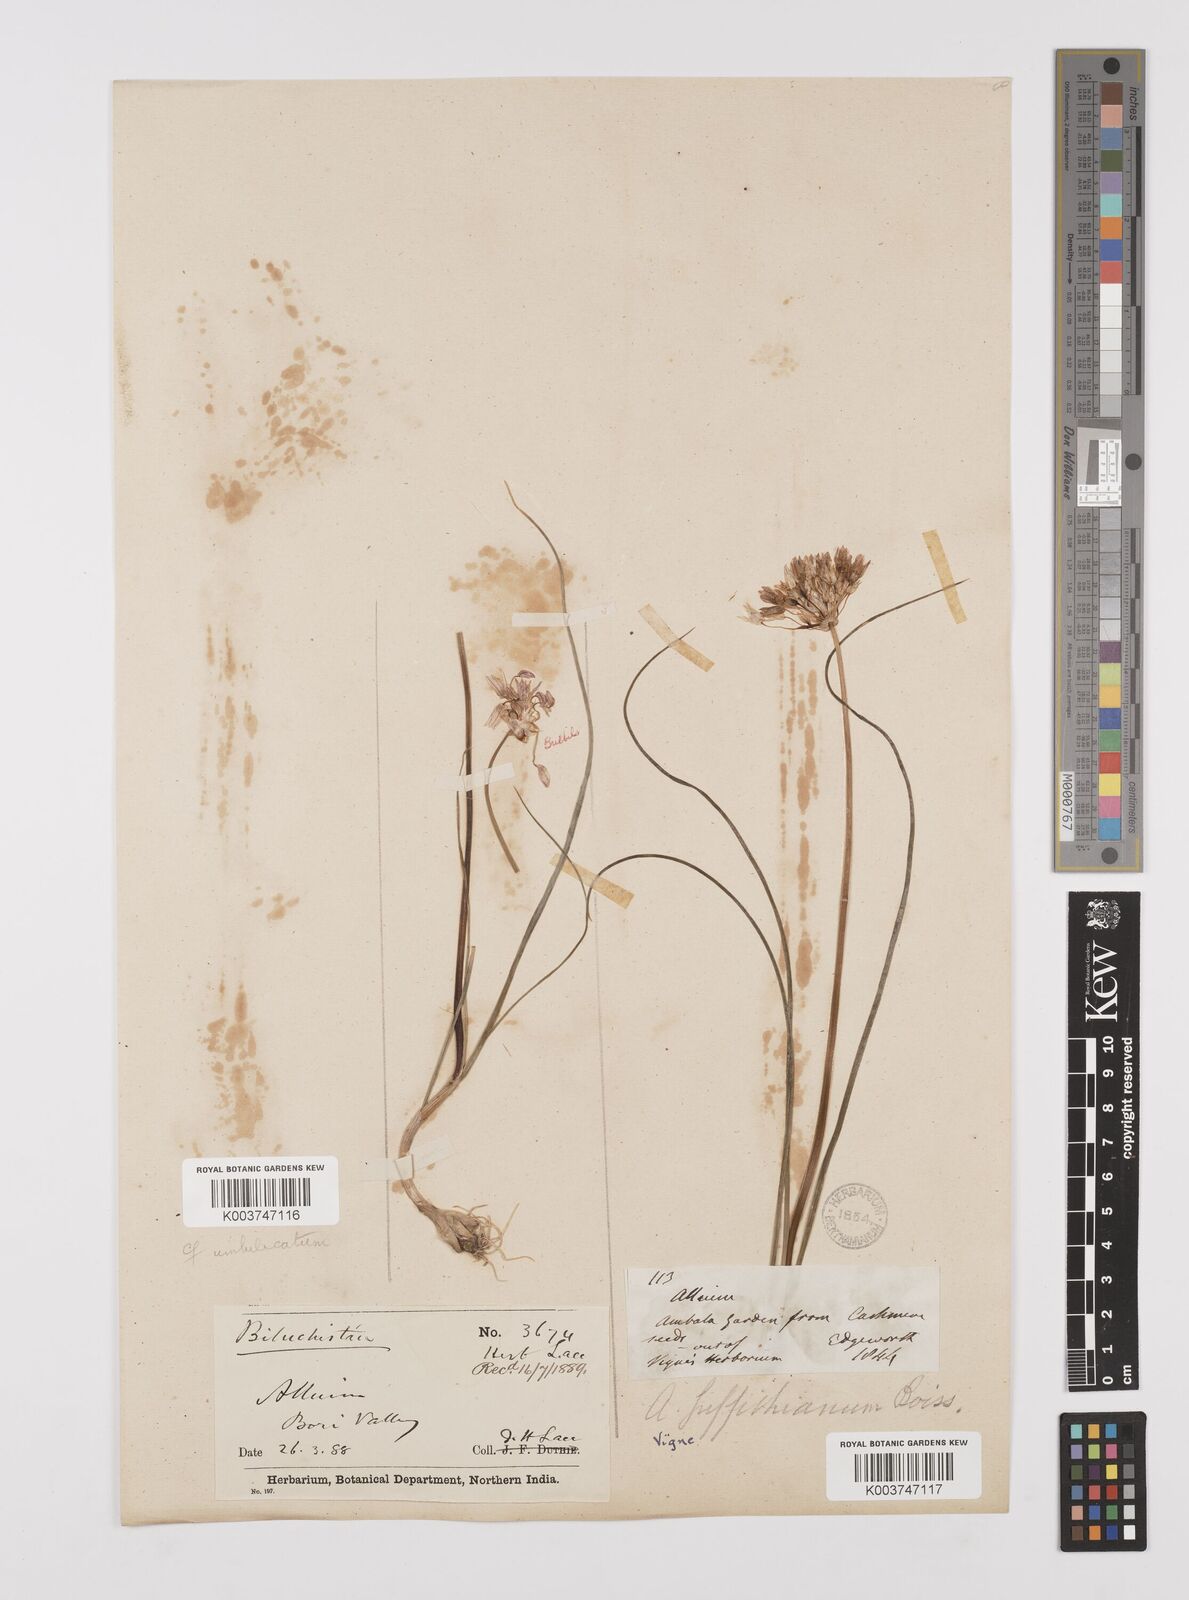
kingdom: Plantae
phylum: Tracheophyta
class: Liliopsida
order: Asparagales
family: Amaryllidaceae
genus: Allium
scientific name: Allium griffithianum
